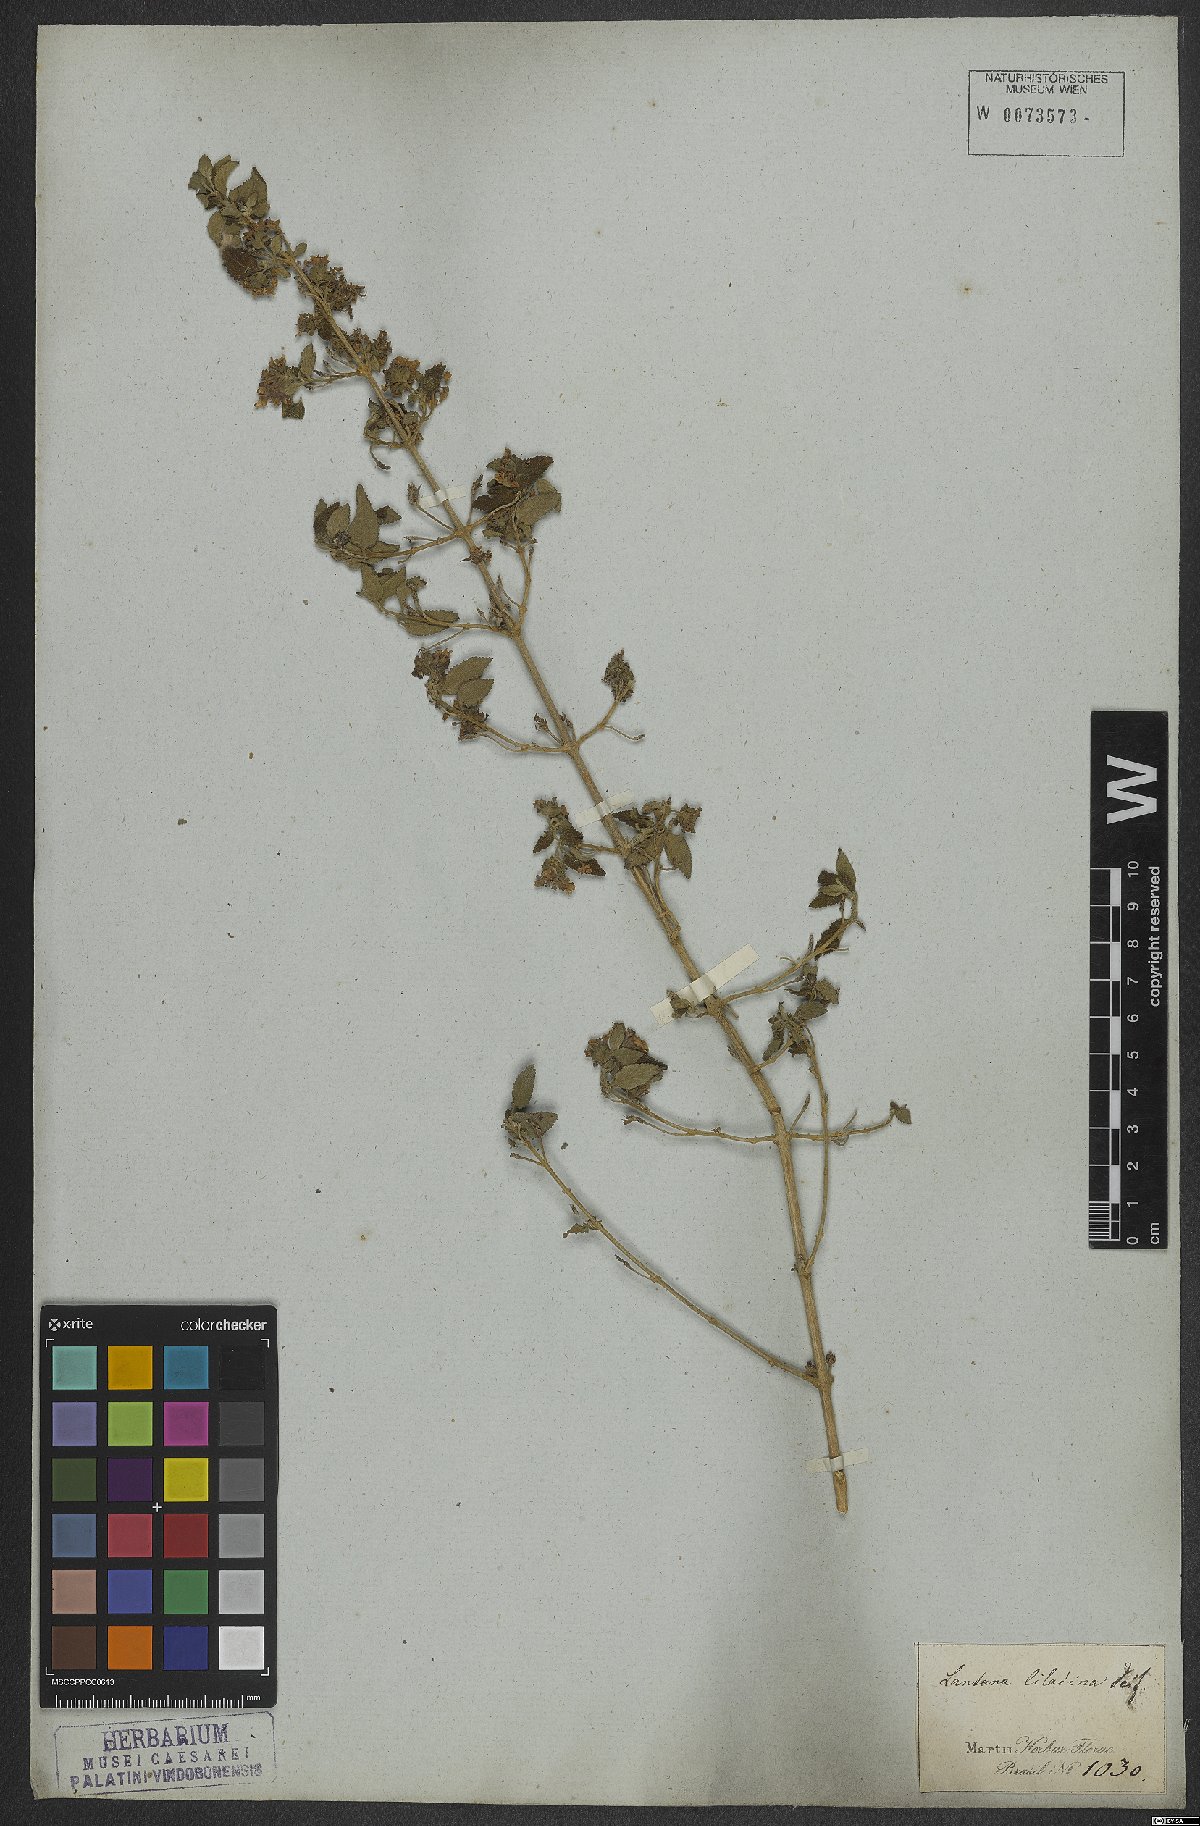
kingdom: Plantae
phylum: Tracheophyta
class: Magnoliopsida
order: Lamiales
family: Verbenaceae
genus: Lantana
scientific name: Lantana fucata
